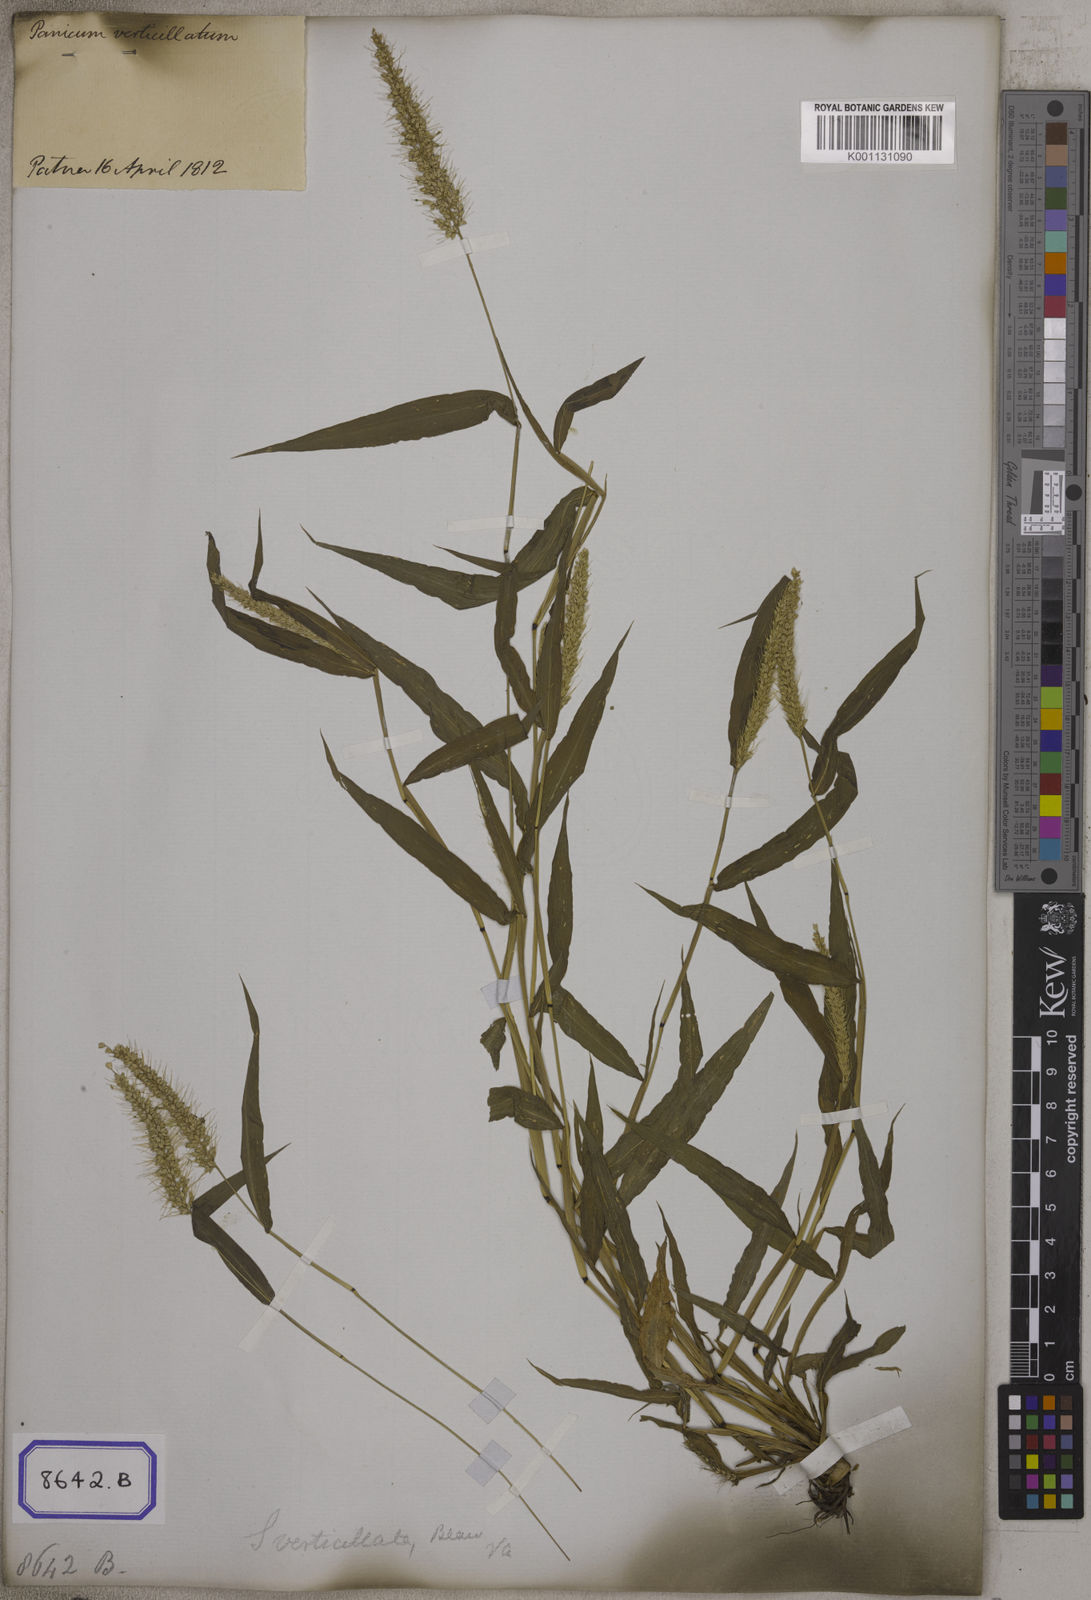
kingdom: Plantae
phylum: Tracheophyta
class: Liliopsida
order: Poales
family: Poaceae
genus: Setaria
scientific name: Setaria verticillata
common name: Hooked bristlegrass
